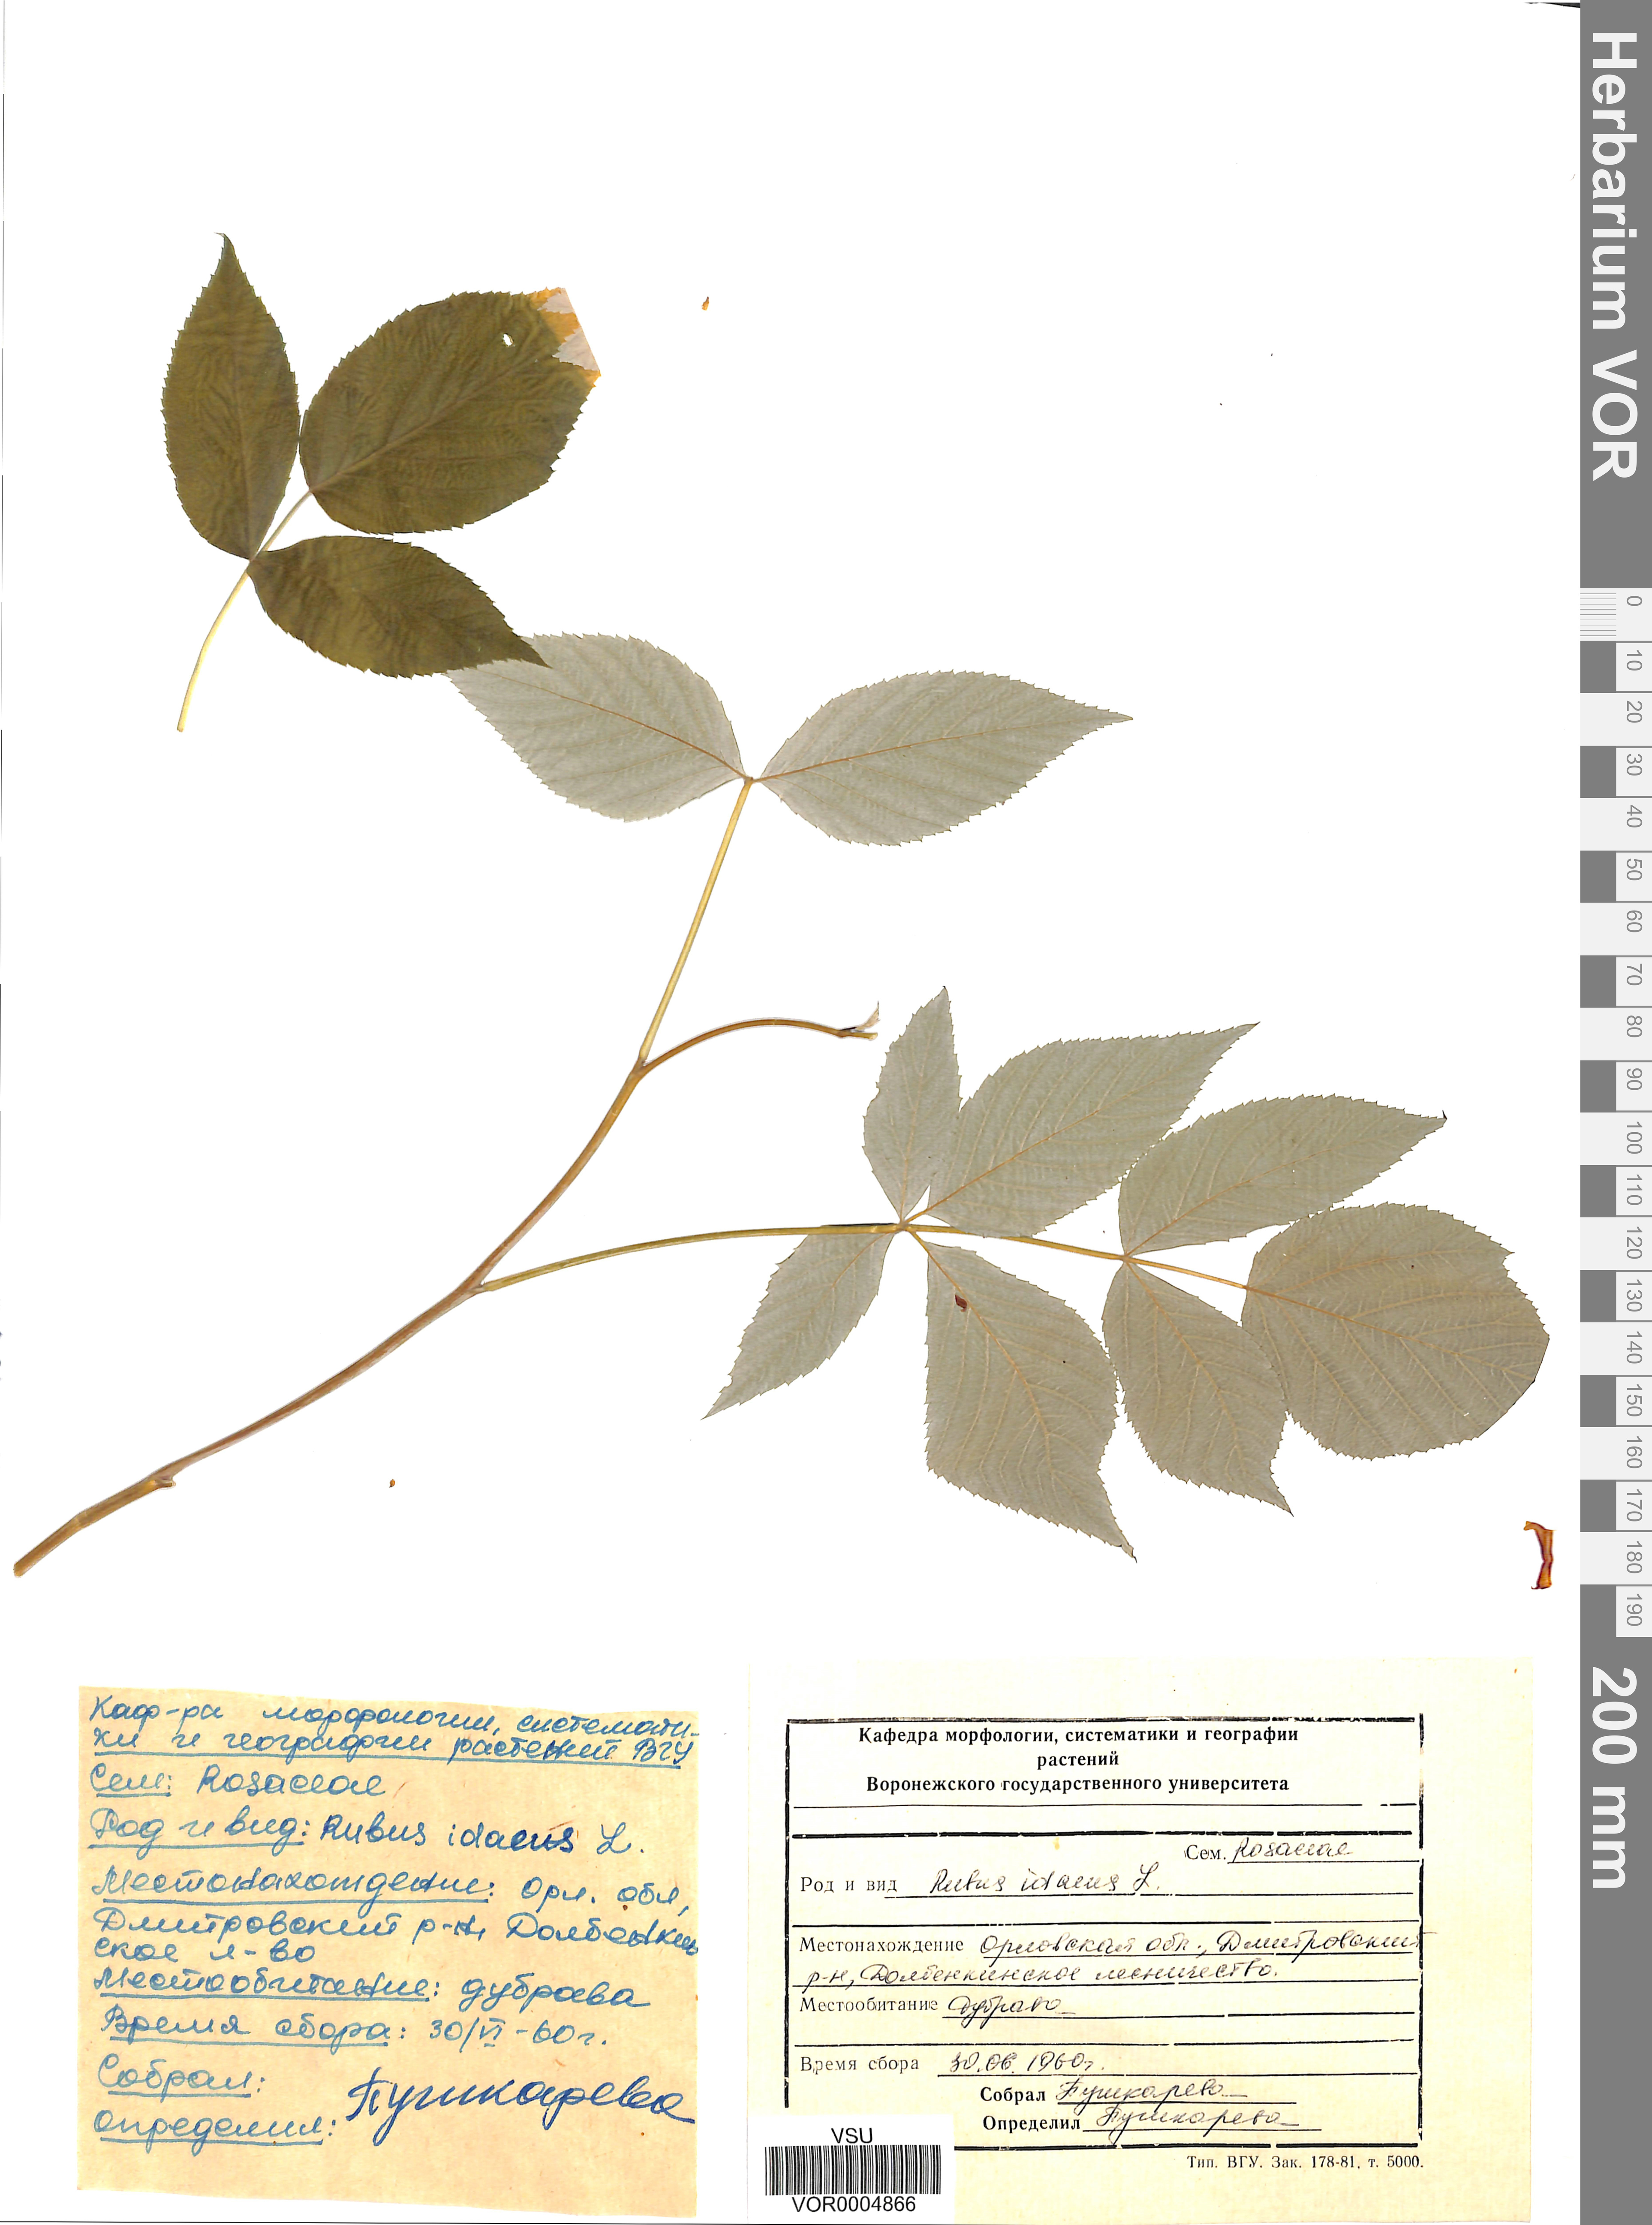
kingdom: Plantae
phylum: Tracheophyta
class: Magnoliopsida
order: Rosales
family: Rosaceae
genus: Rubus
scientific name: Rubus idaeus
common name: Raspberry
